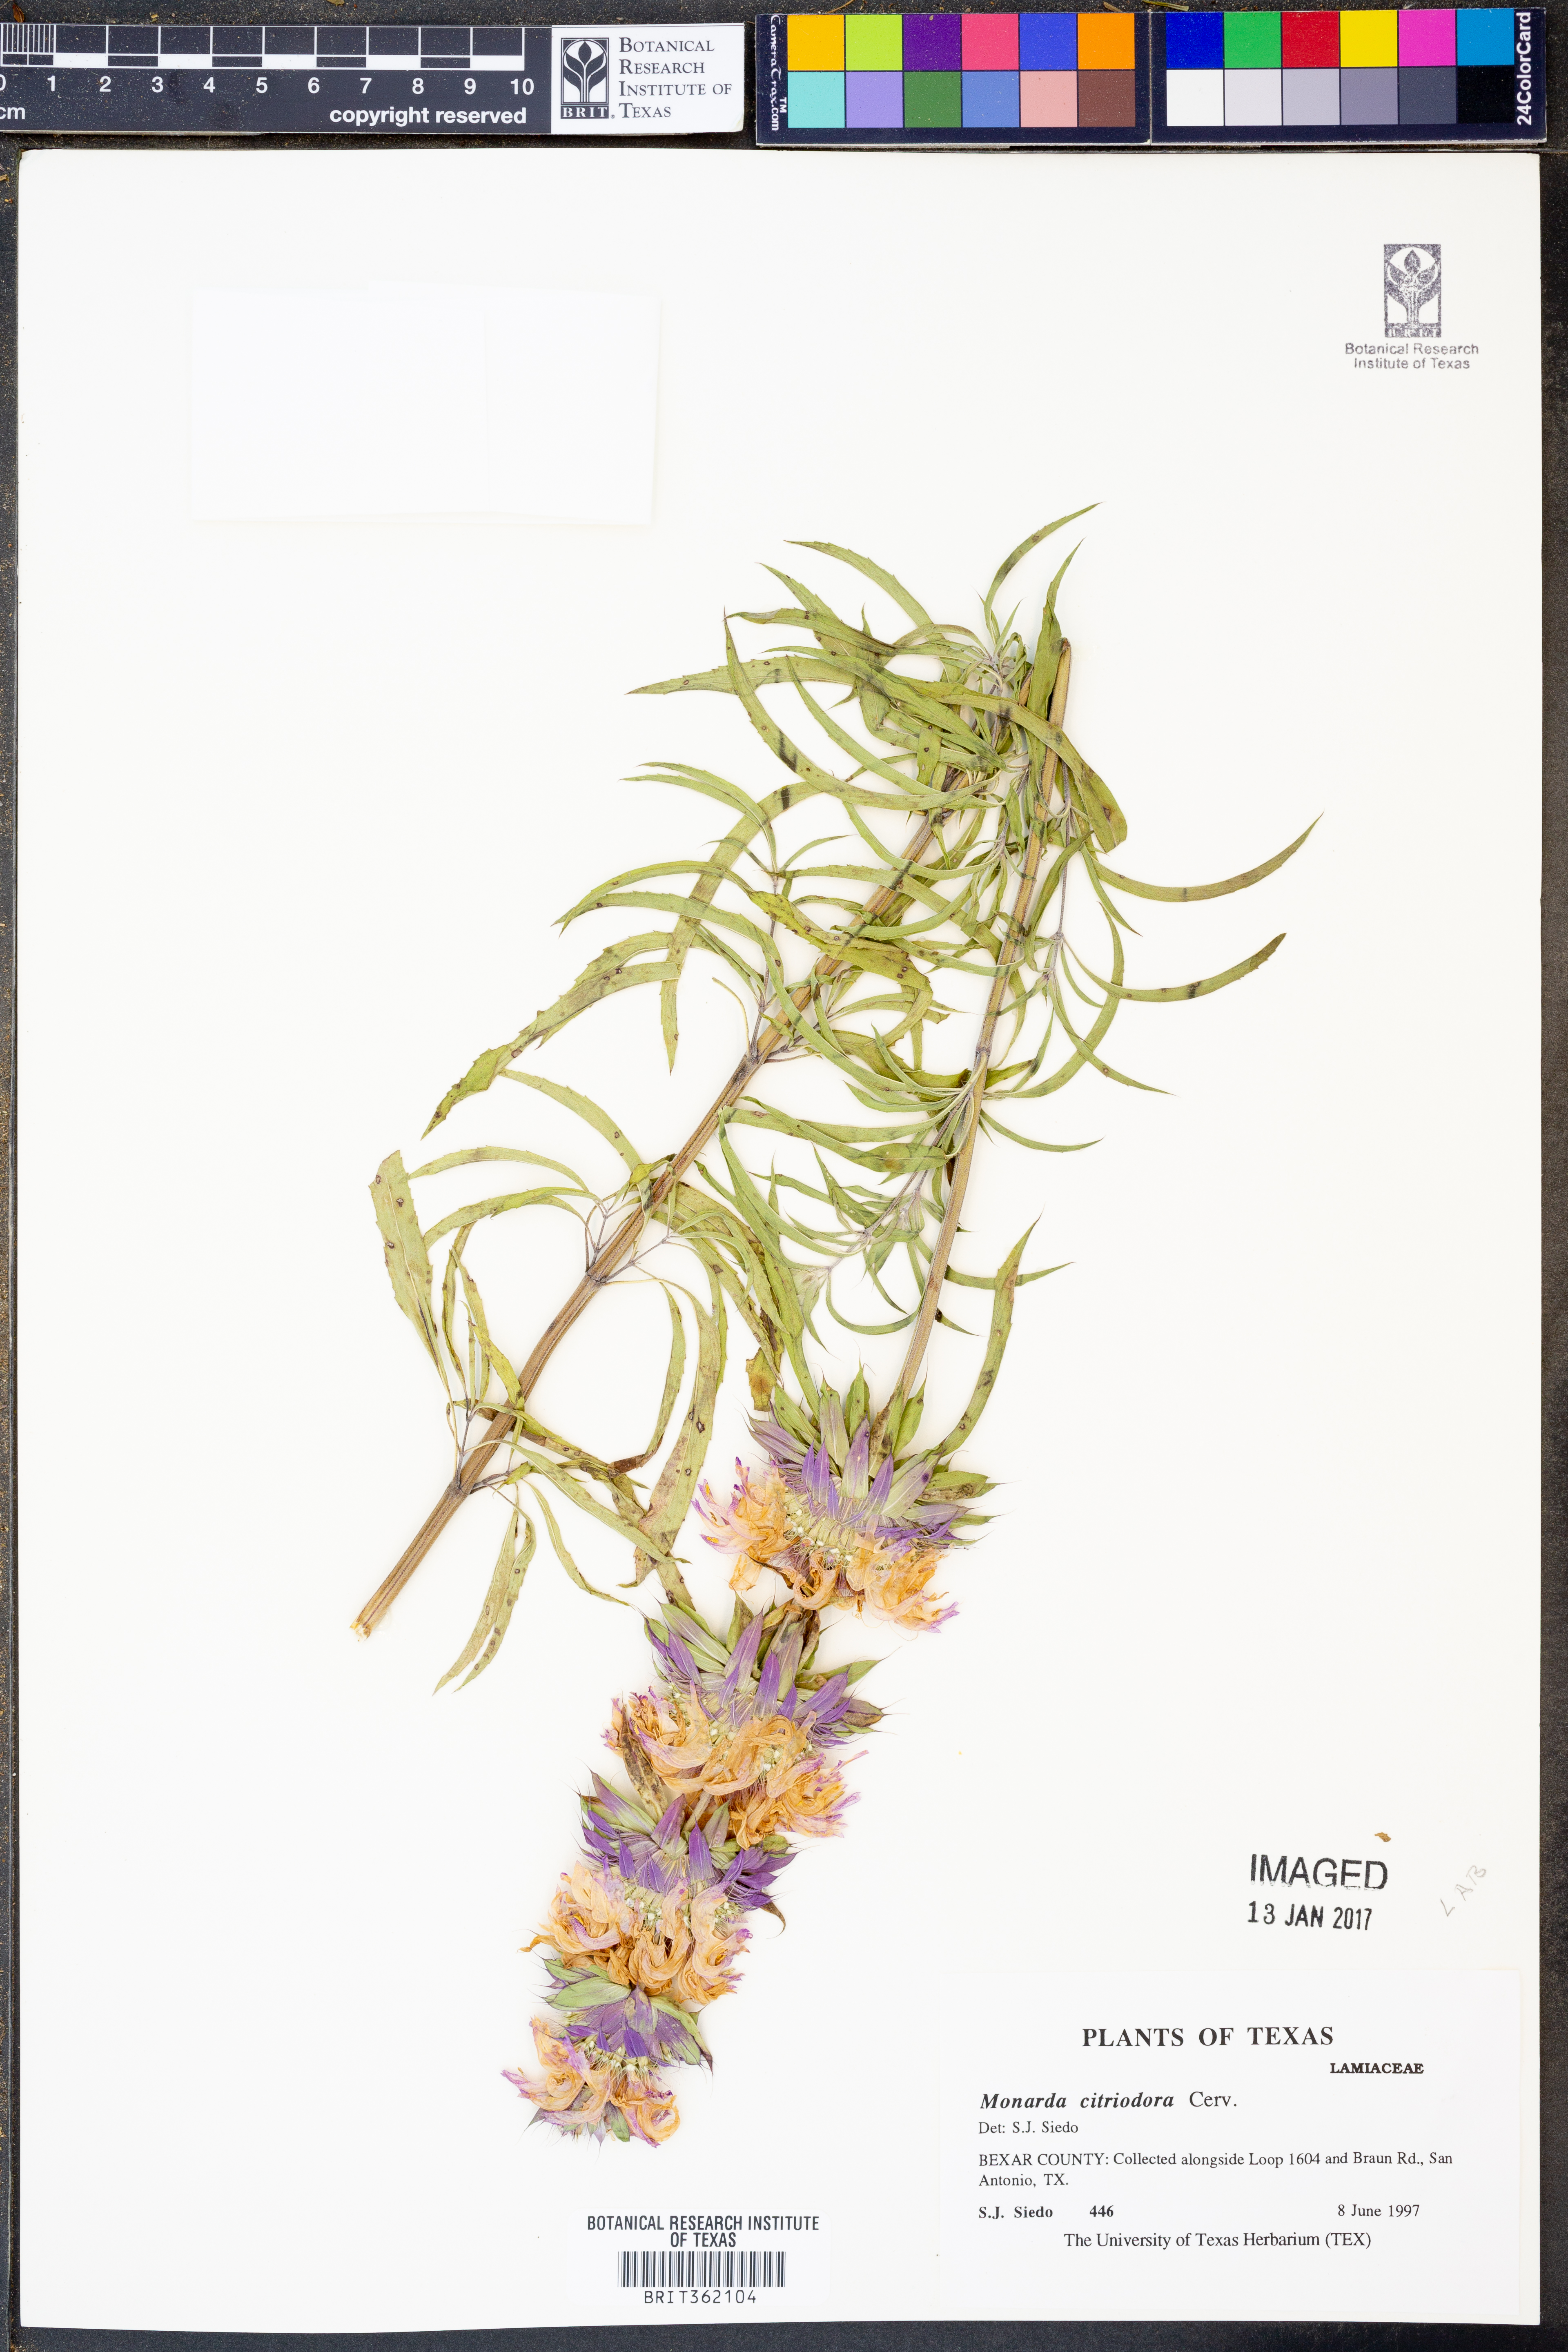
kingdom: Plantae
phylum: Tracheophyta
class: Magnoliopsida
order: Lamiales
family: Lamiaceae
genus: Monarda
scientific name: Monarda citriodora
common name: Lemon beebalm
